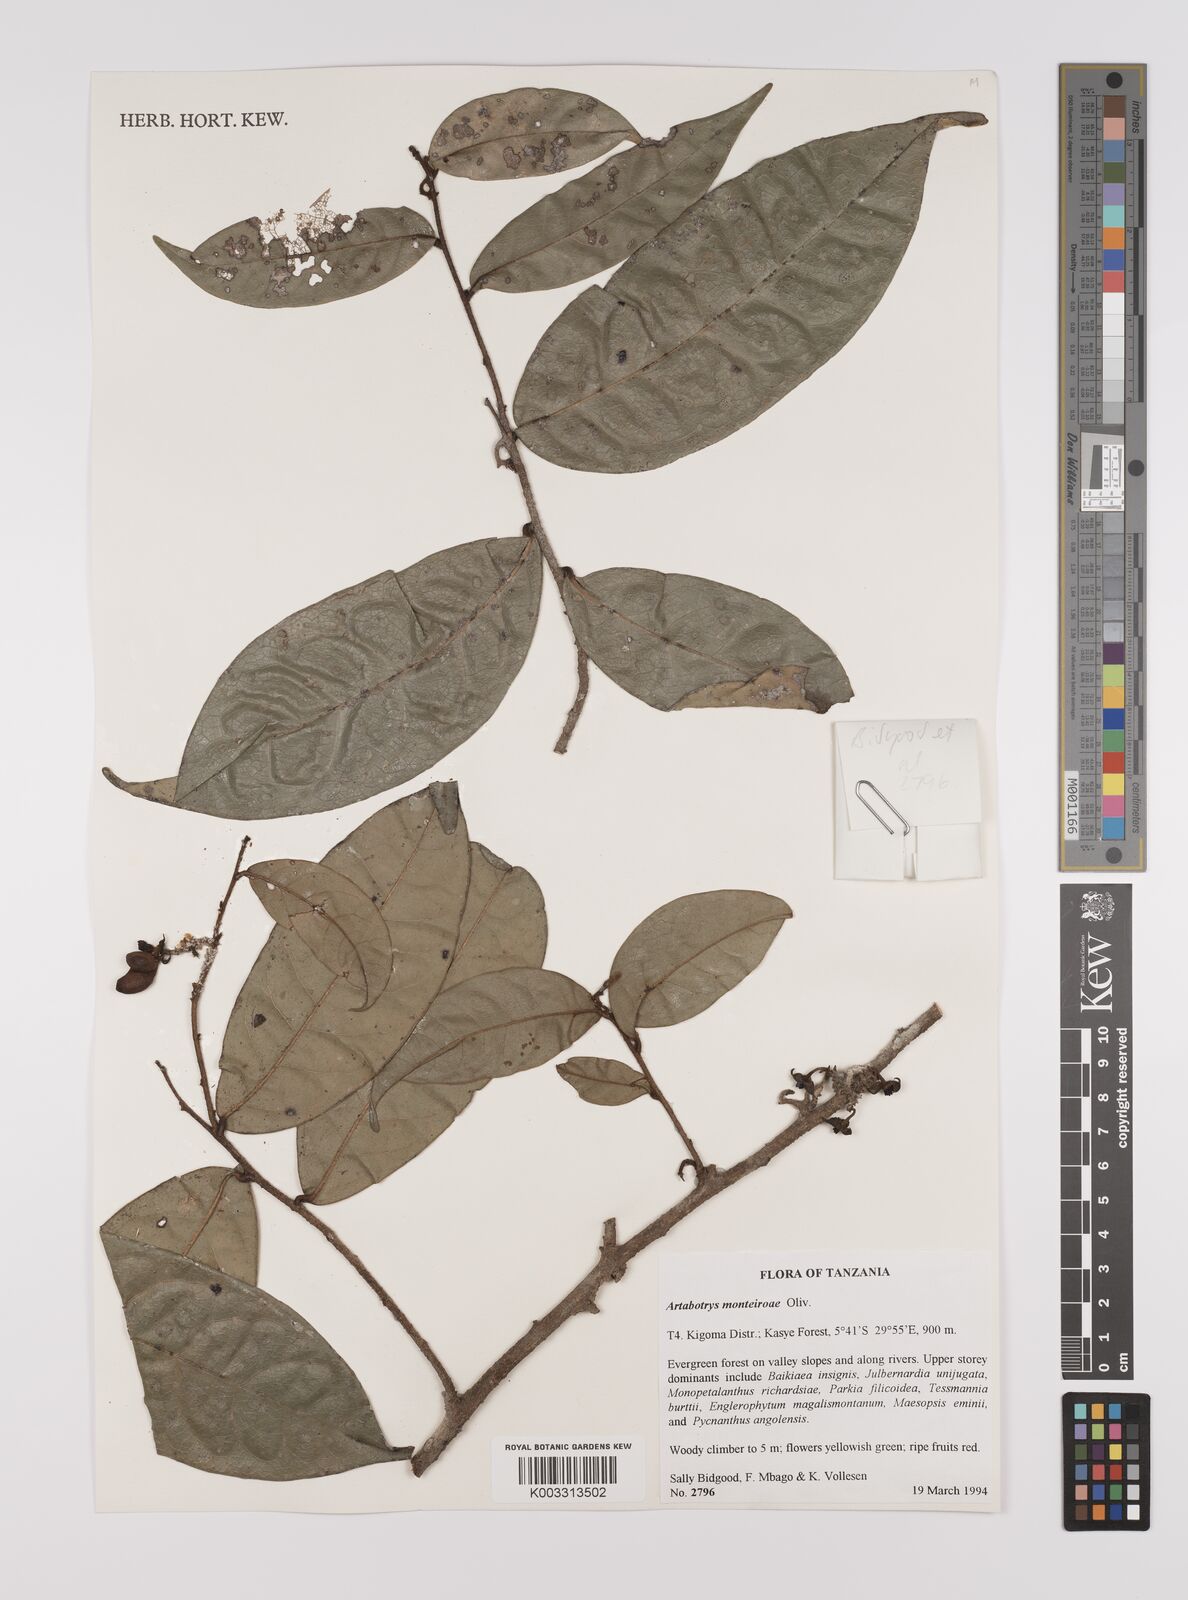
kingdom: Plantae
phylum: Tracheophyta
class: Magnoliopsida
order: Magnoliales
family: Annonaceae
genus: Artabotrys
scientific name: Artabotrys monteiroae
